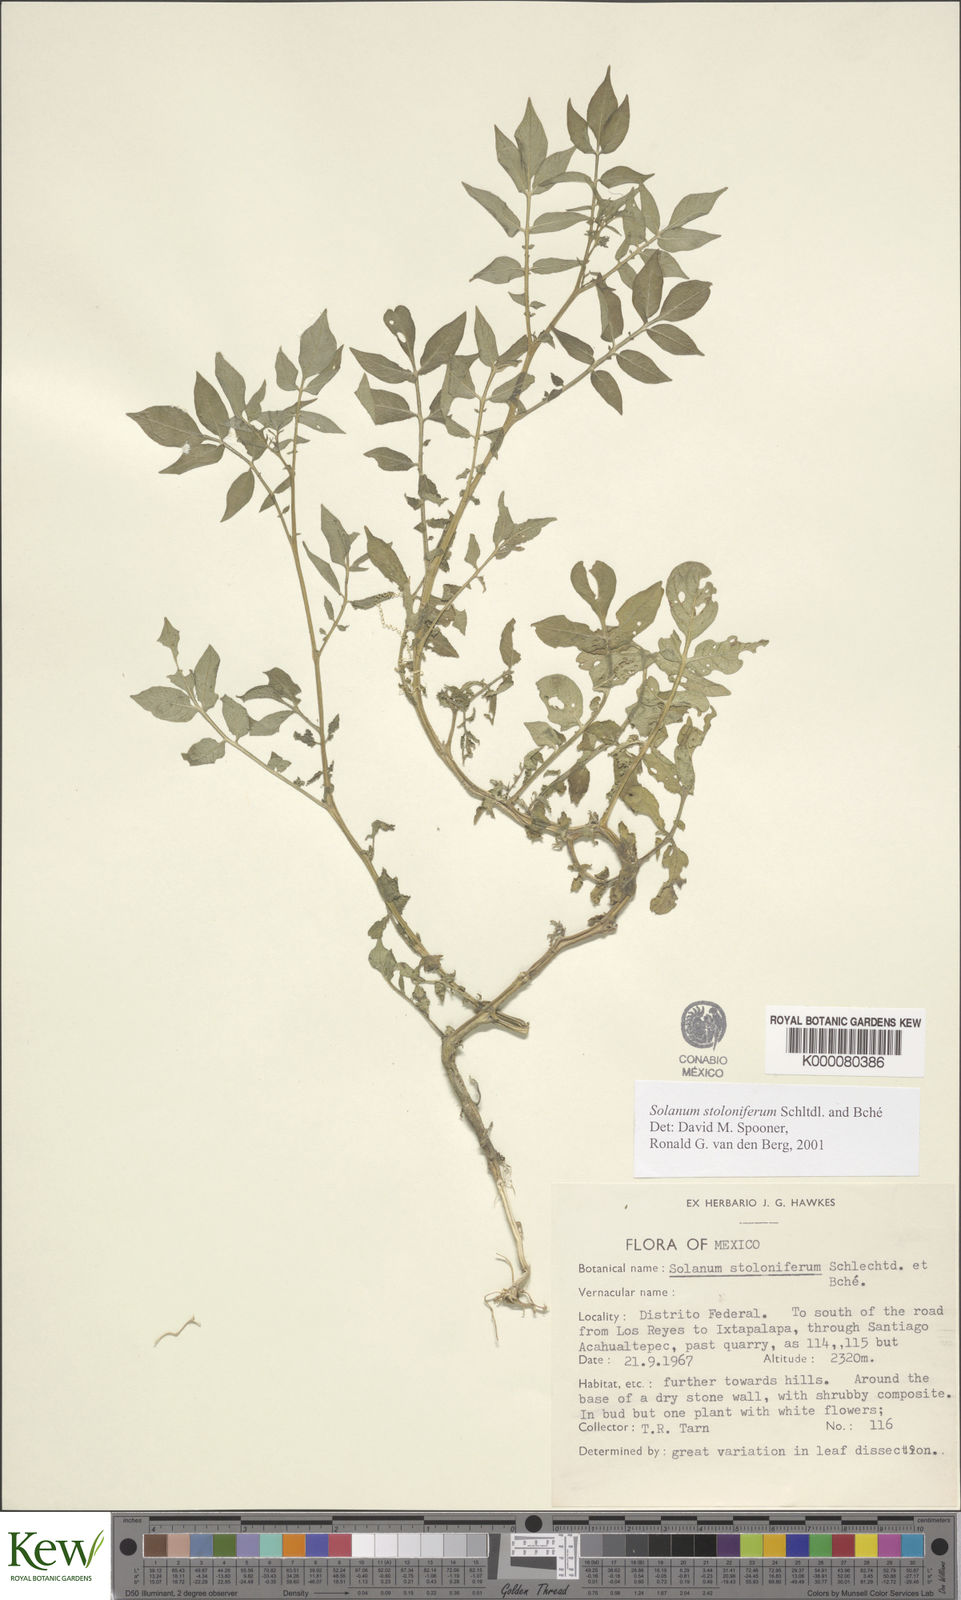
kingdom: Plantae
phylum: Tracheophyta
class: Magnoliopsida
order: Solanales
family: Solanaceae
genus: Solanum
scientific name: Solanum stoloniferum
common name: Fendler's nighshade
